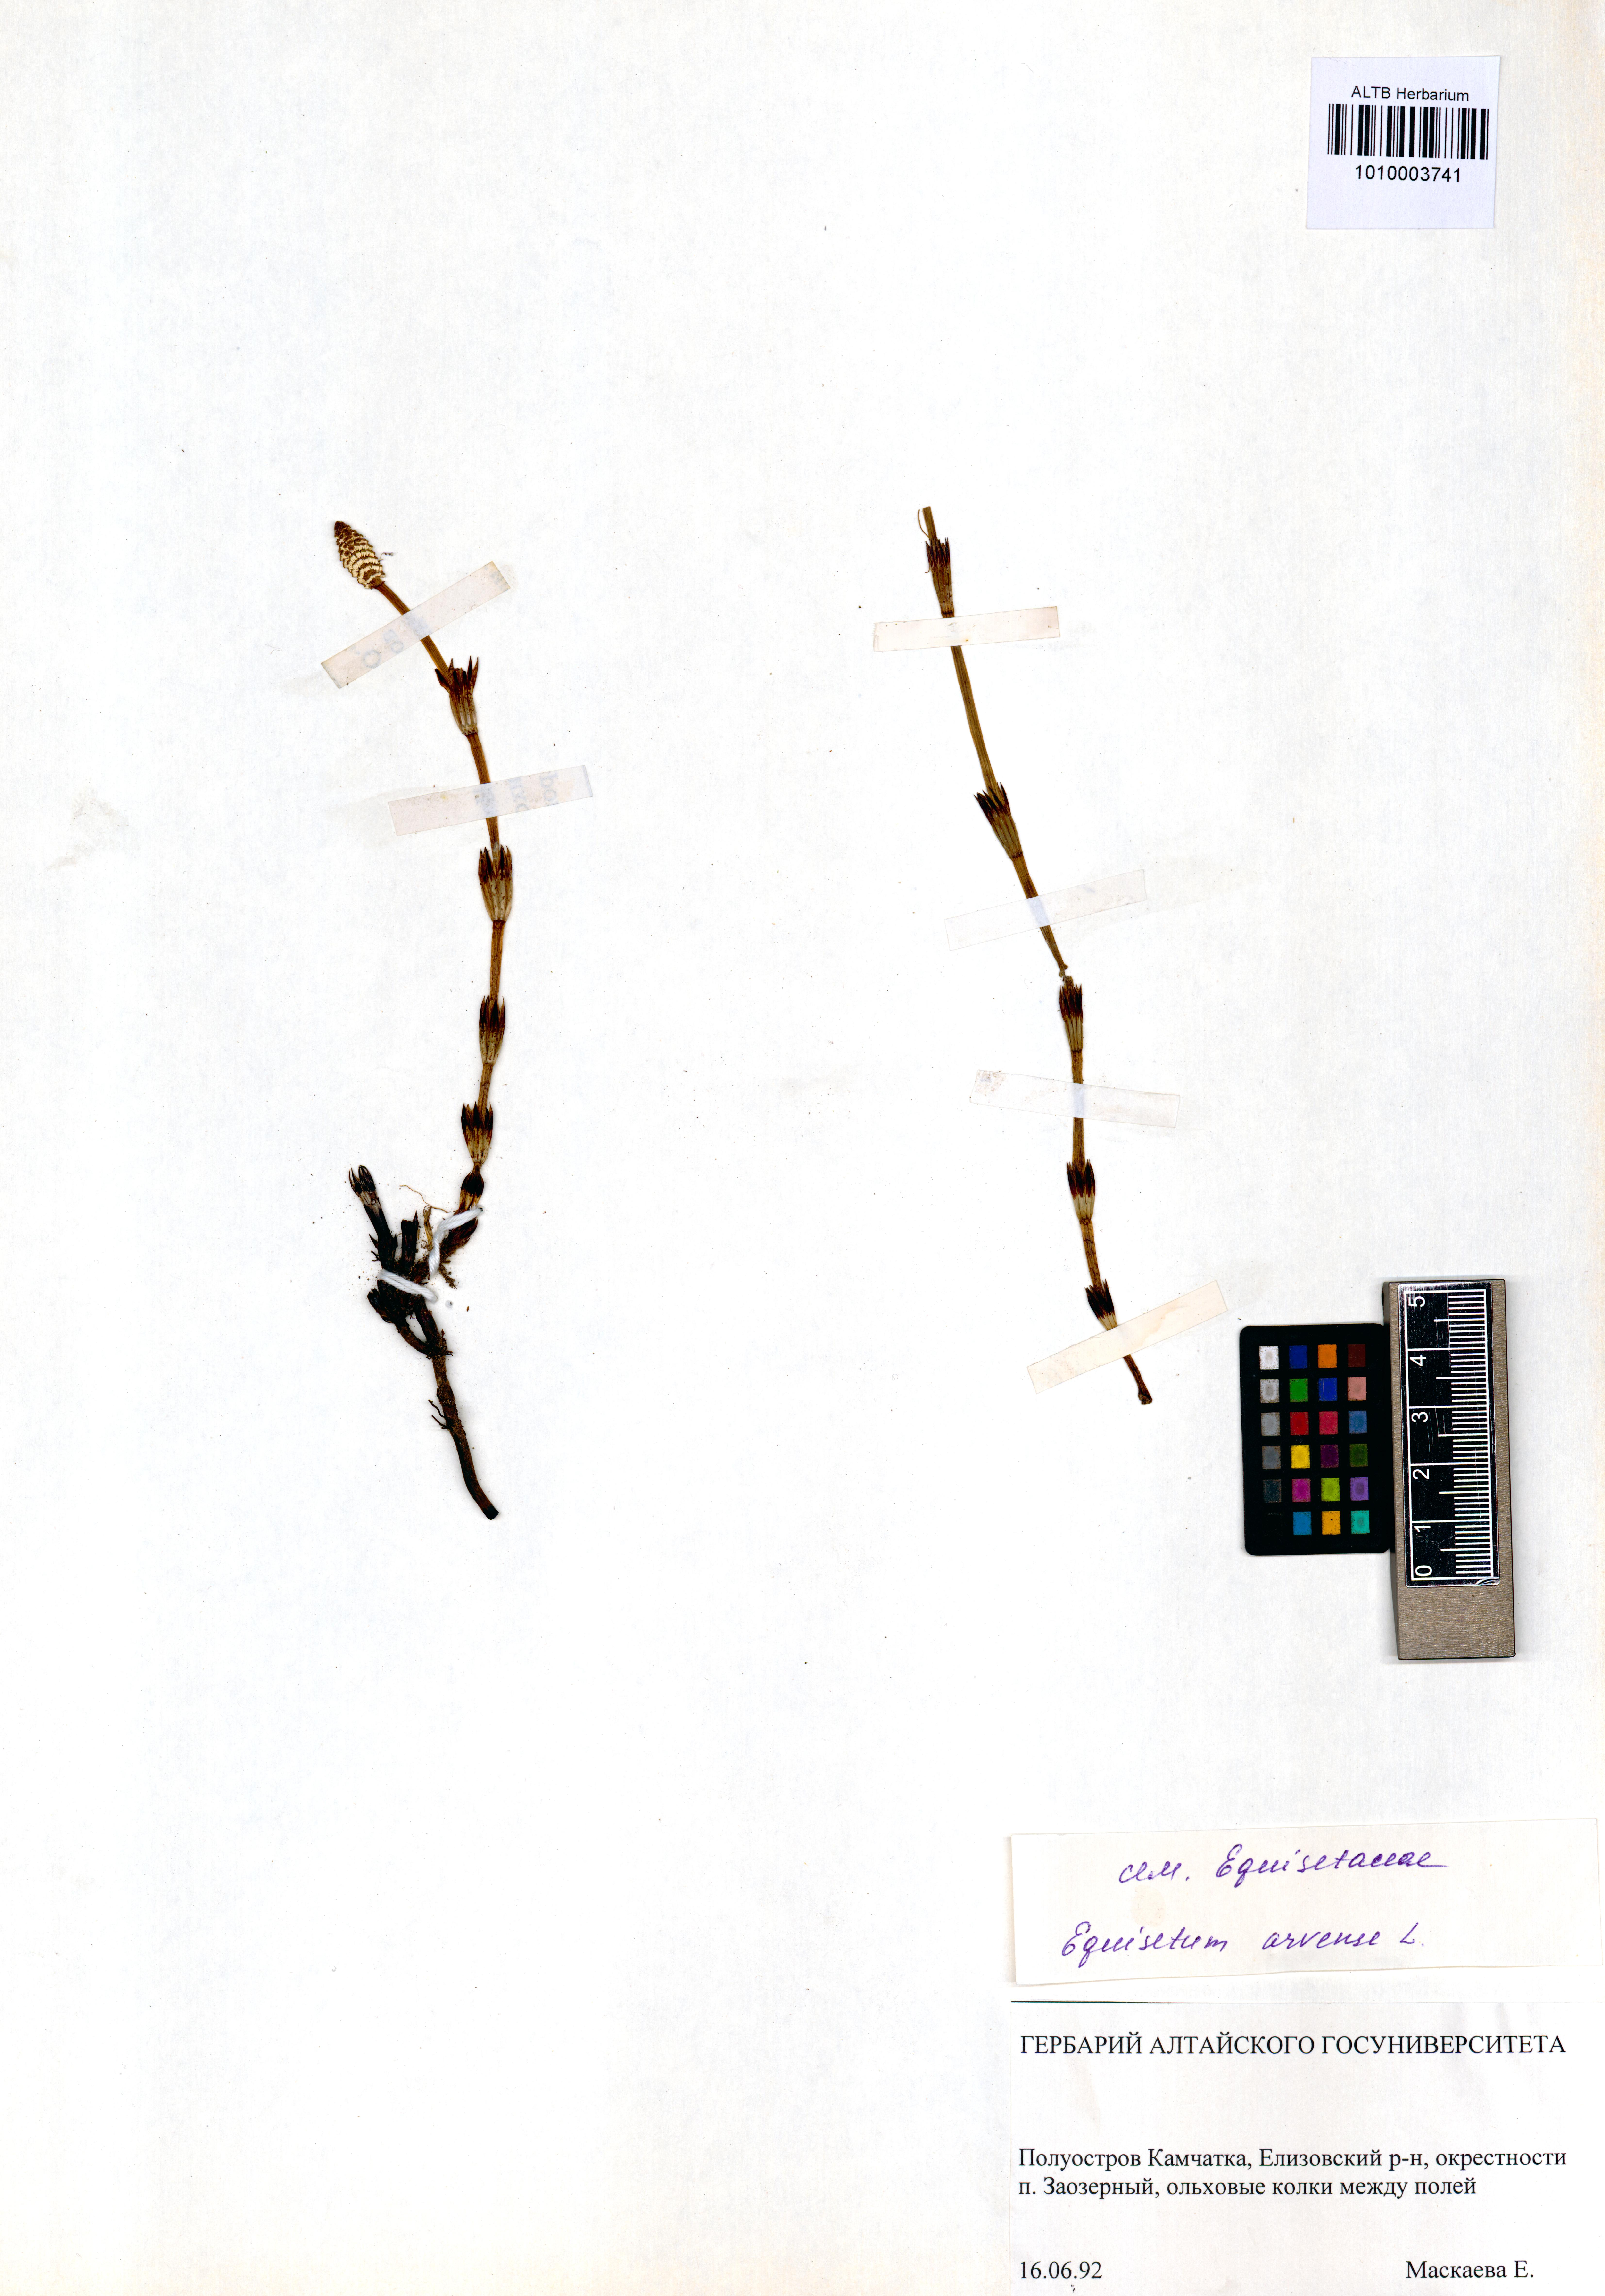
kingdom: Plantae
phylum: Tracheophyta
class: Polypodiopsida
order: Equisetales
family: Equisetaceae
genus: Equisetum
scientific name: Equisetum arvense
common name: Field horsetail
